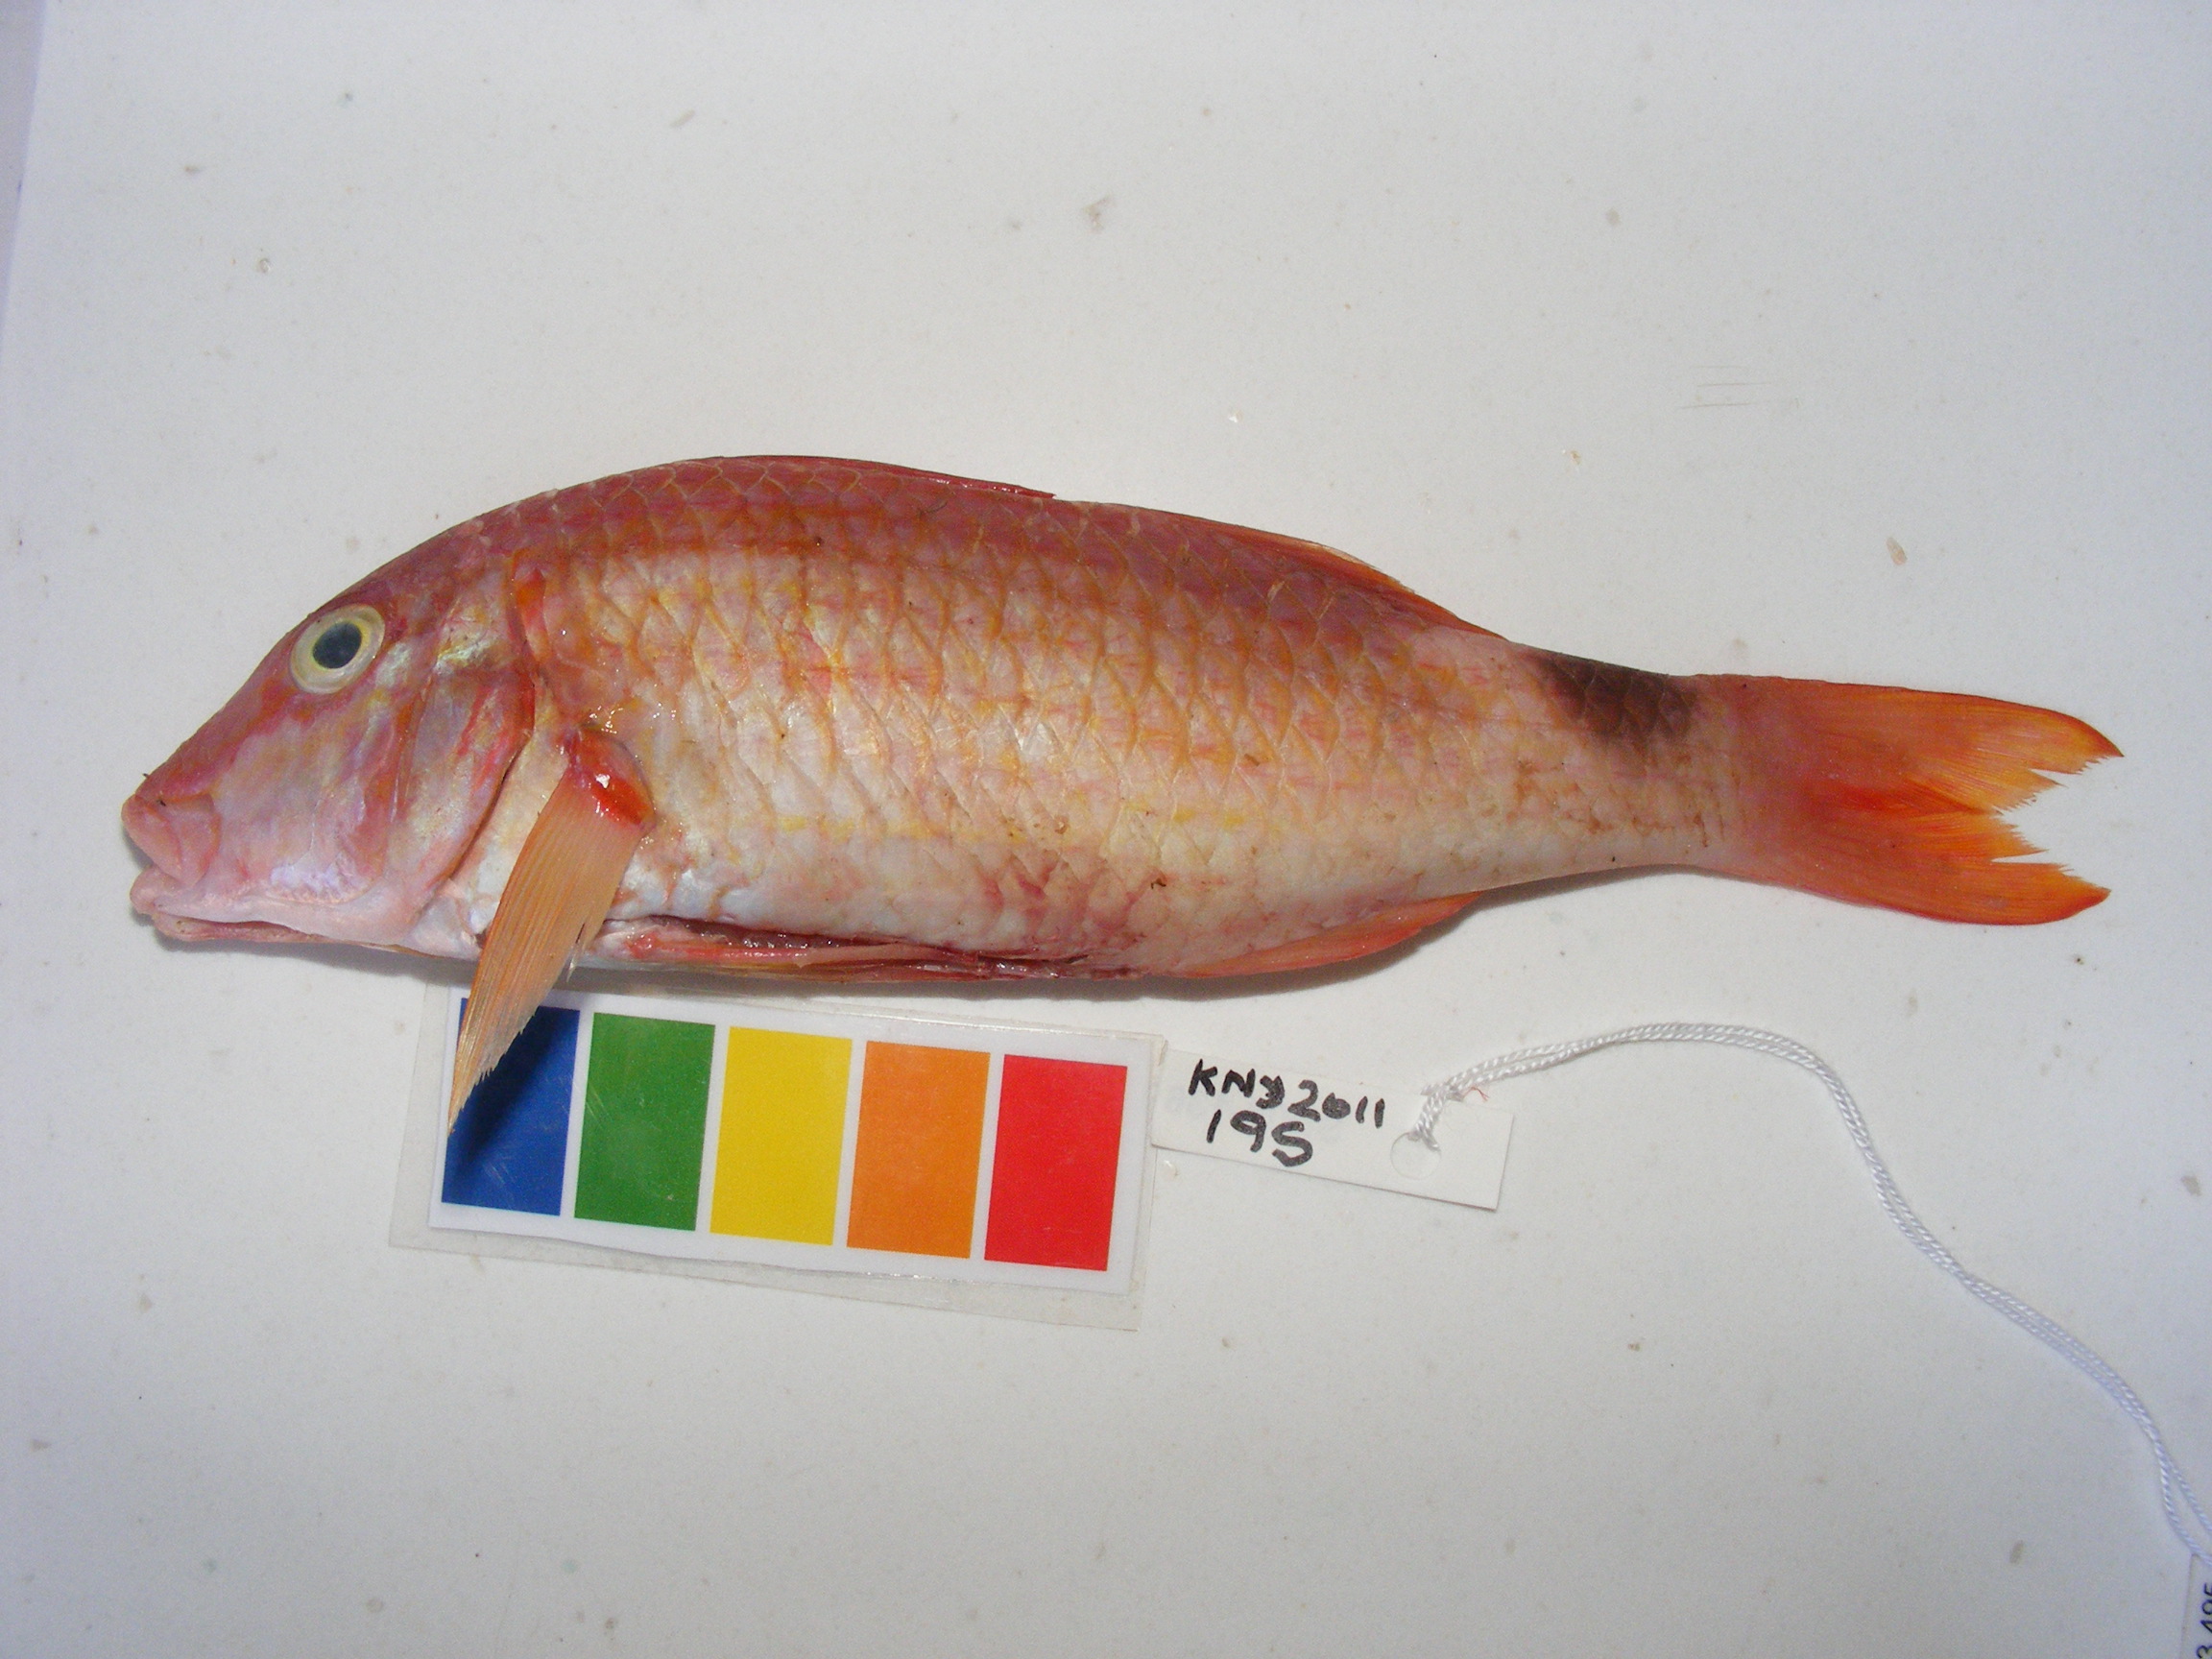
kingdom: Animalia
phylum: Chordata
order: Perciformes
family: Mullidae
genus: Parupeneus
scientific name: Parupeneus rubescens
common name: Rosy goatfish
